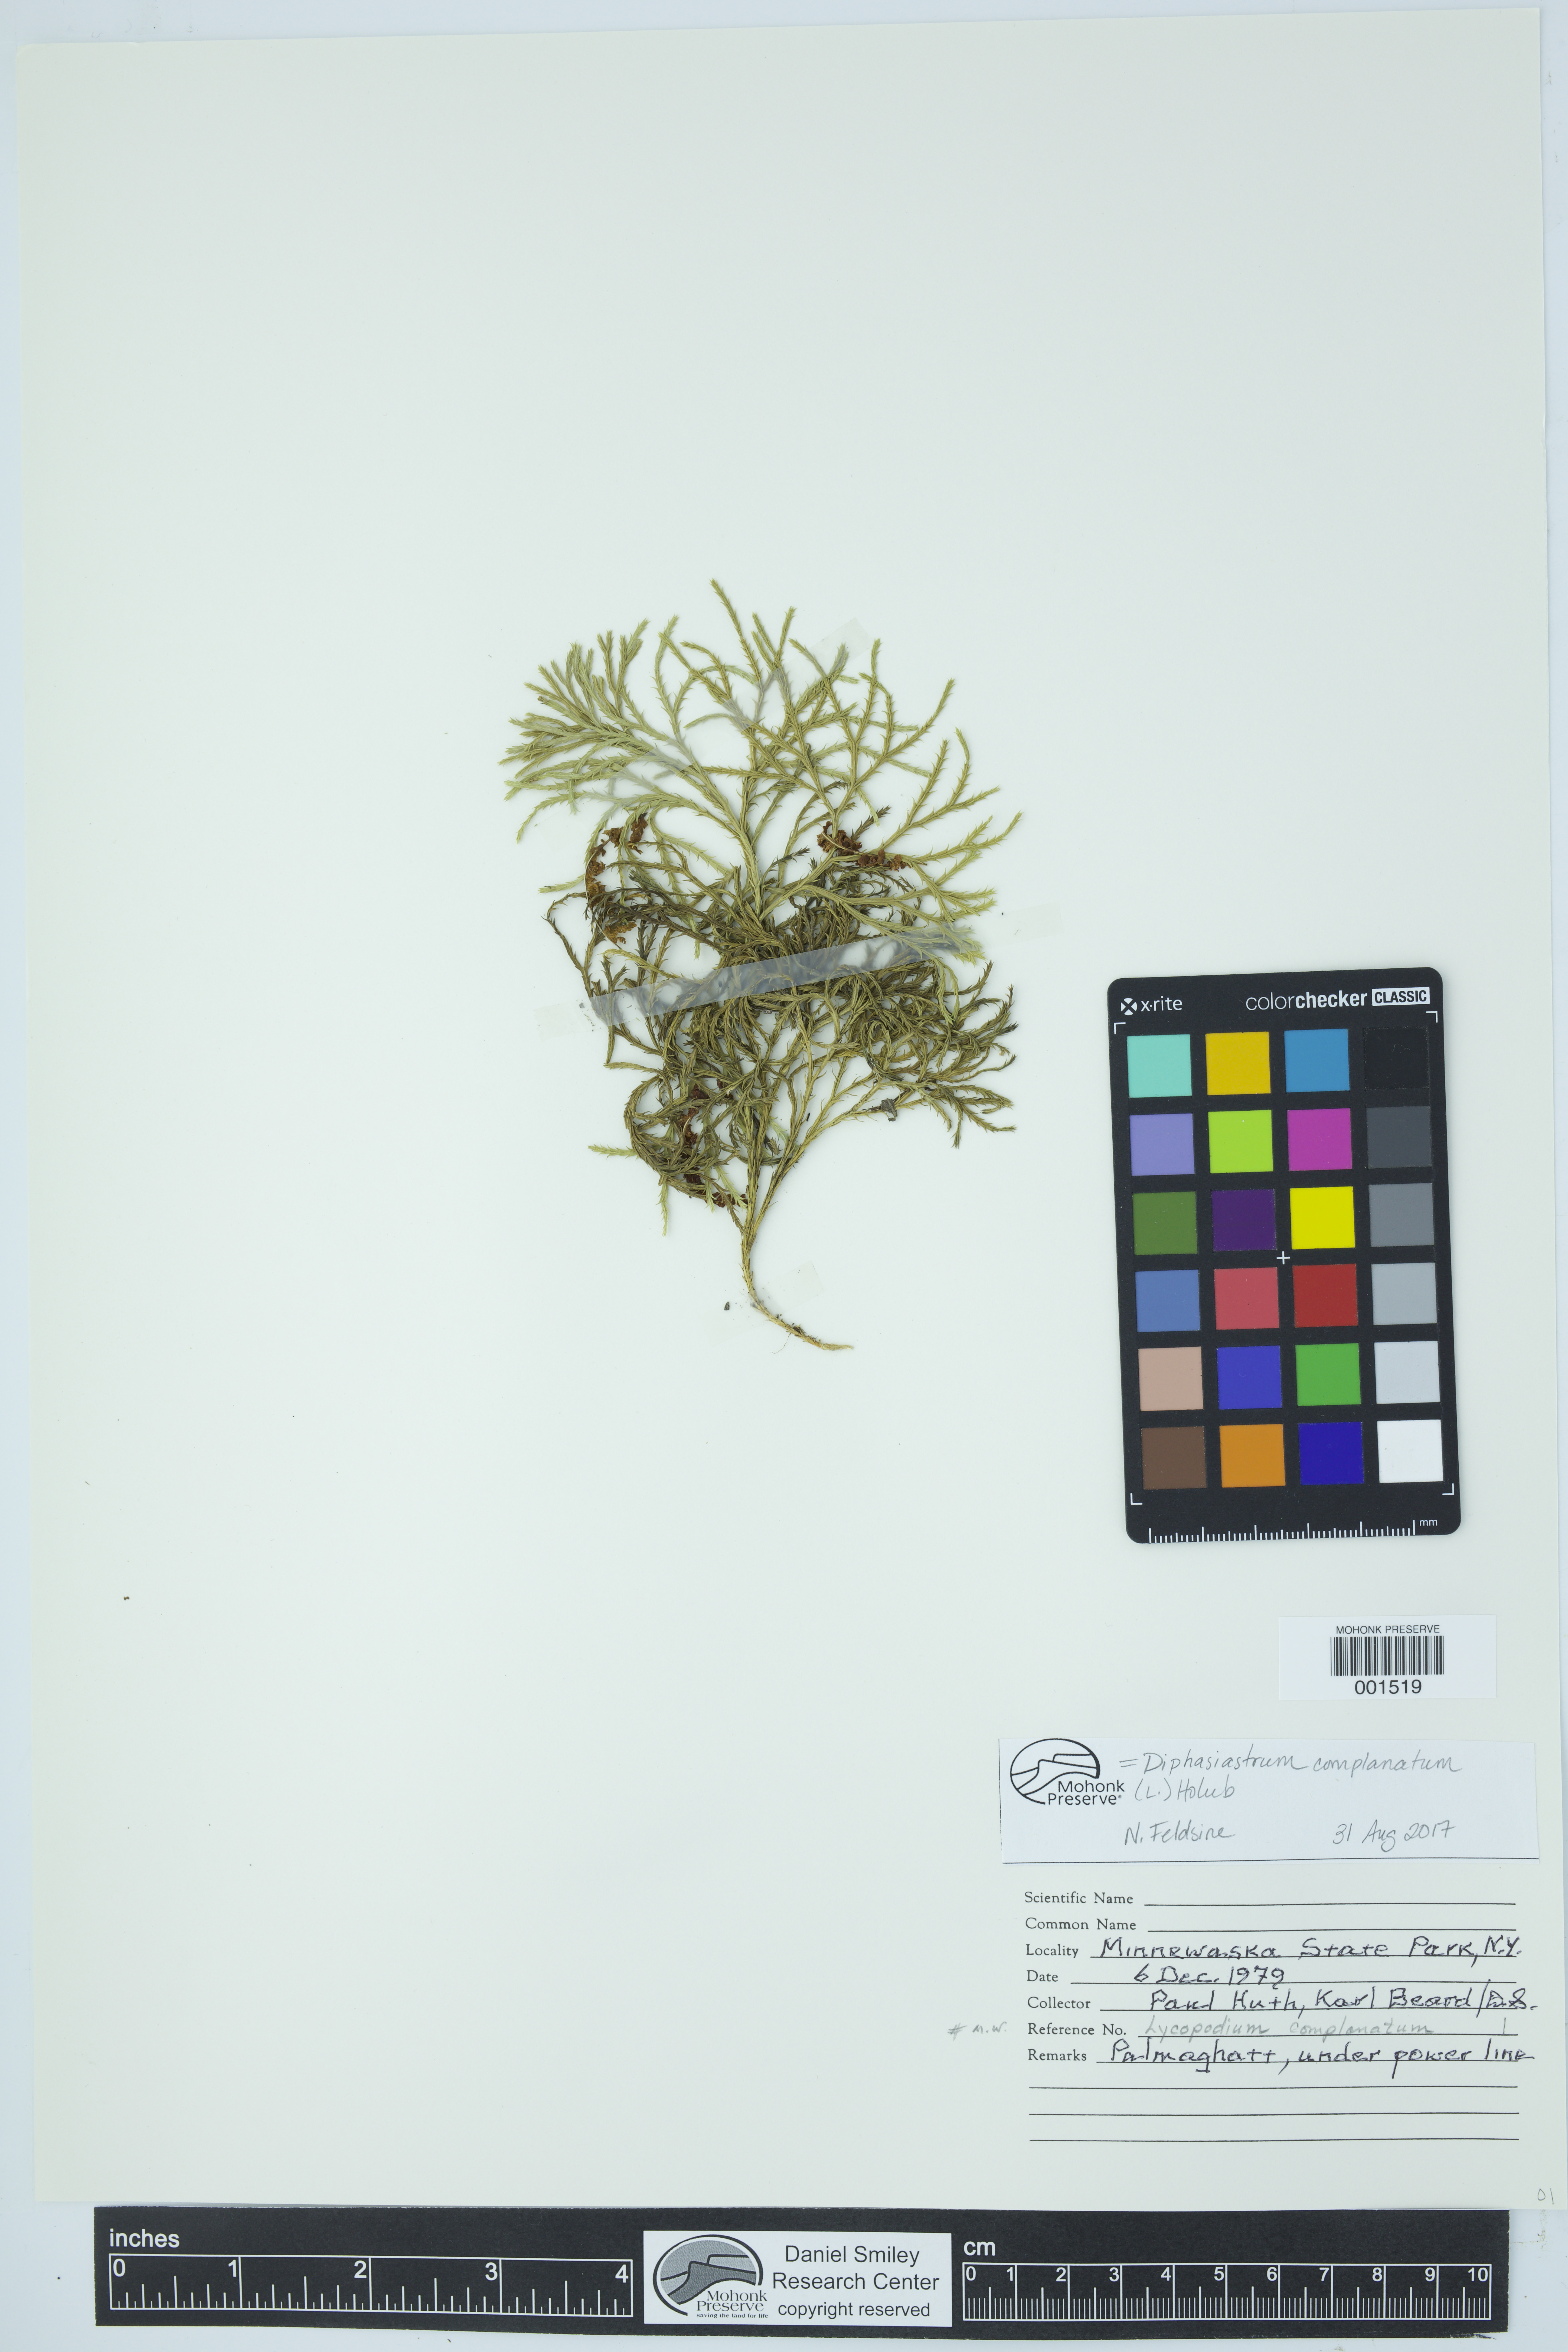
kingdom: Plantae
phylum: Tracheophyta
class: Lycopodiopsida
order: Lycopodiales
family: Lycopodiaceae
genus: Diphasiastrum
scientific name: Diphasiastrum complanatum
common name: Northern running-pine
